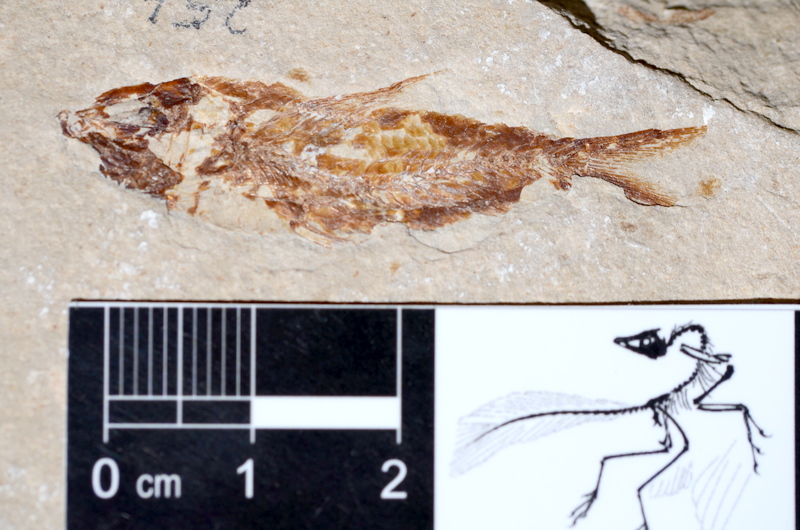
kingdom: Animalia
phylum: Chordata
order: Clupeiformes
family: Clupeidae
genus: Clupea
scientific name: Clupea harengus
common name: Herring
